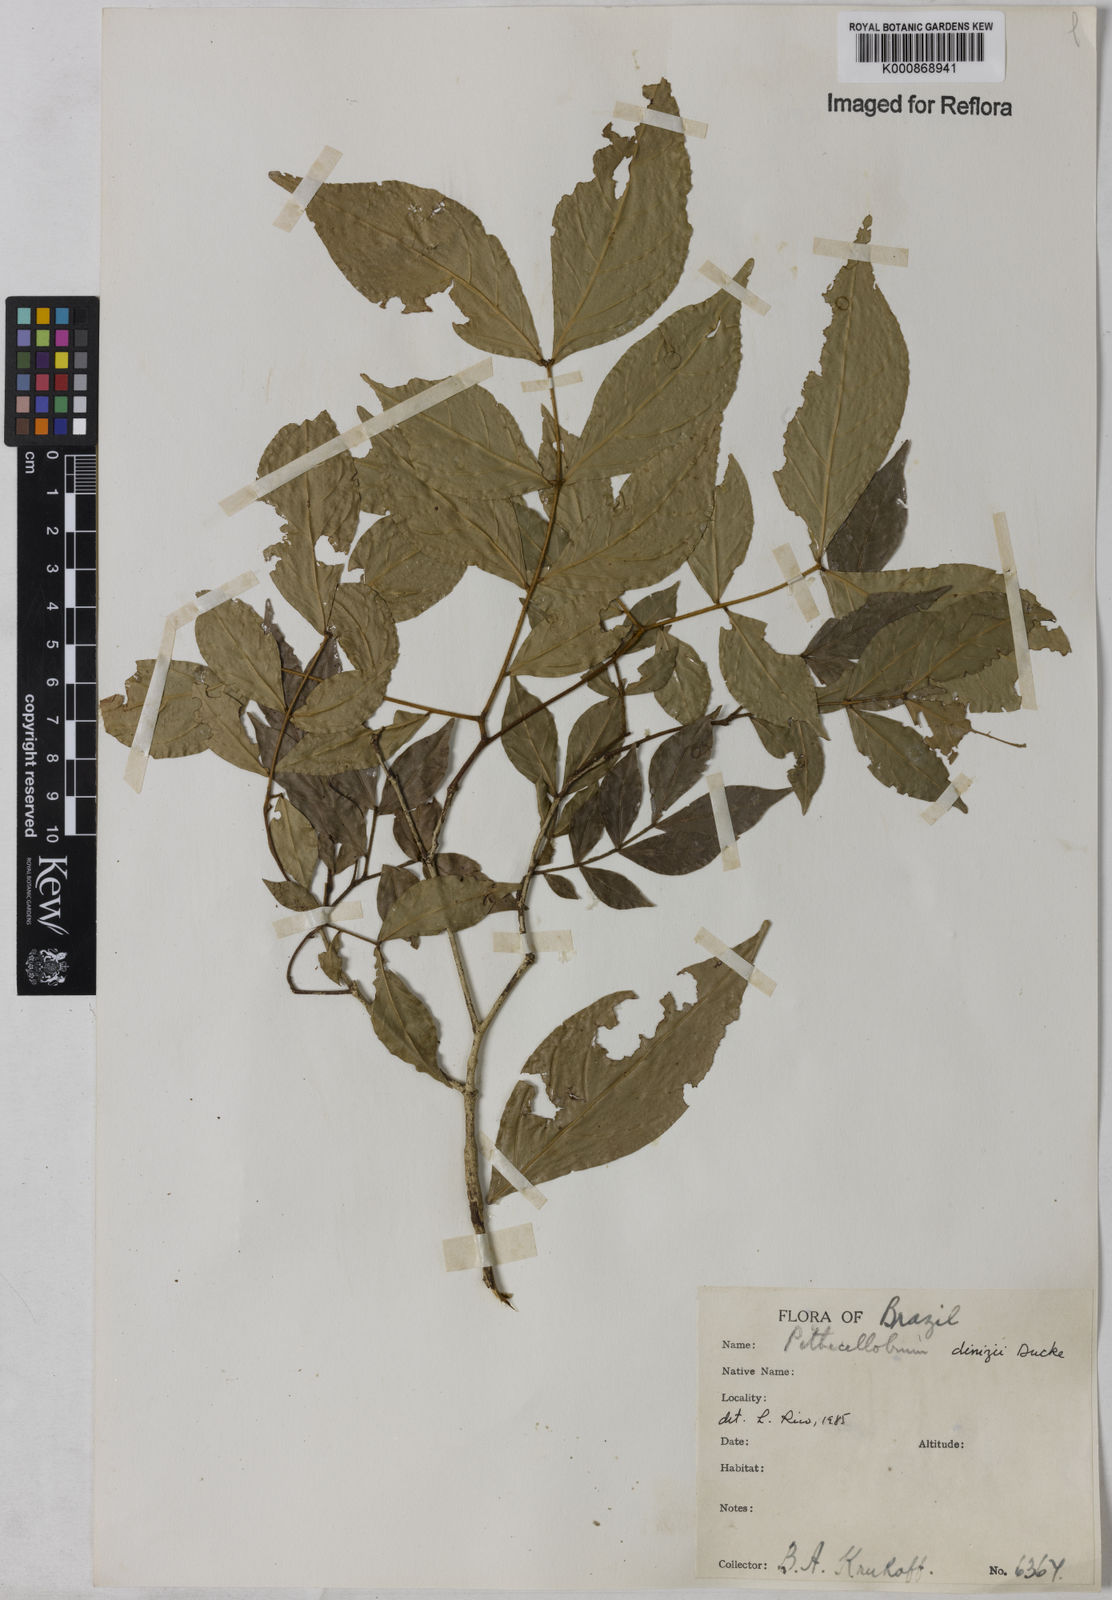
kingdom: Plantae
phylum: Tracheophyta
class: Magnoliopsida
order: Fabales
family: Fabaceae
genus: Zygia
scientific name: Zygia dinizii
